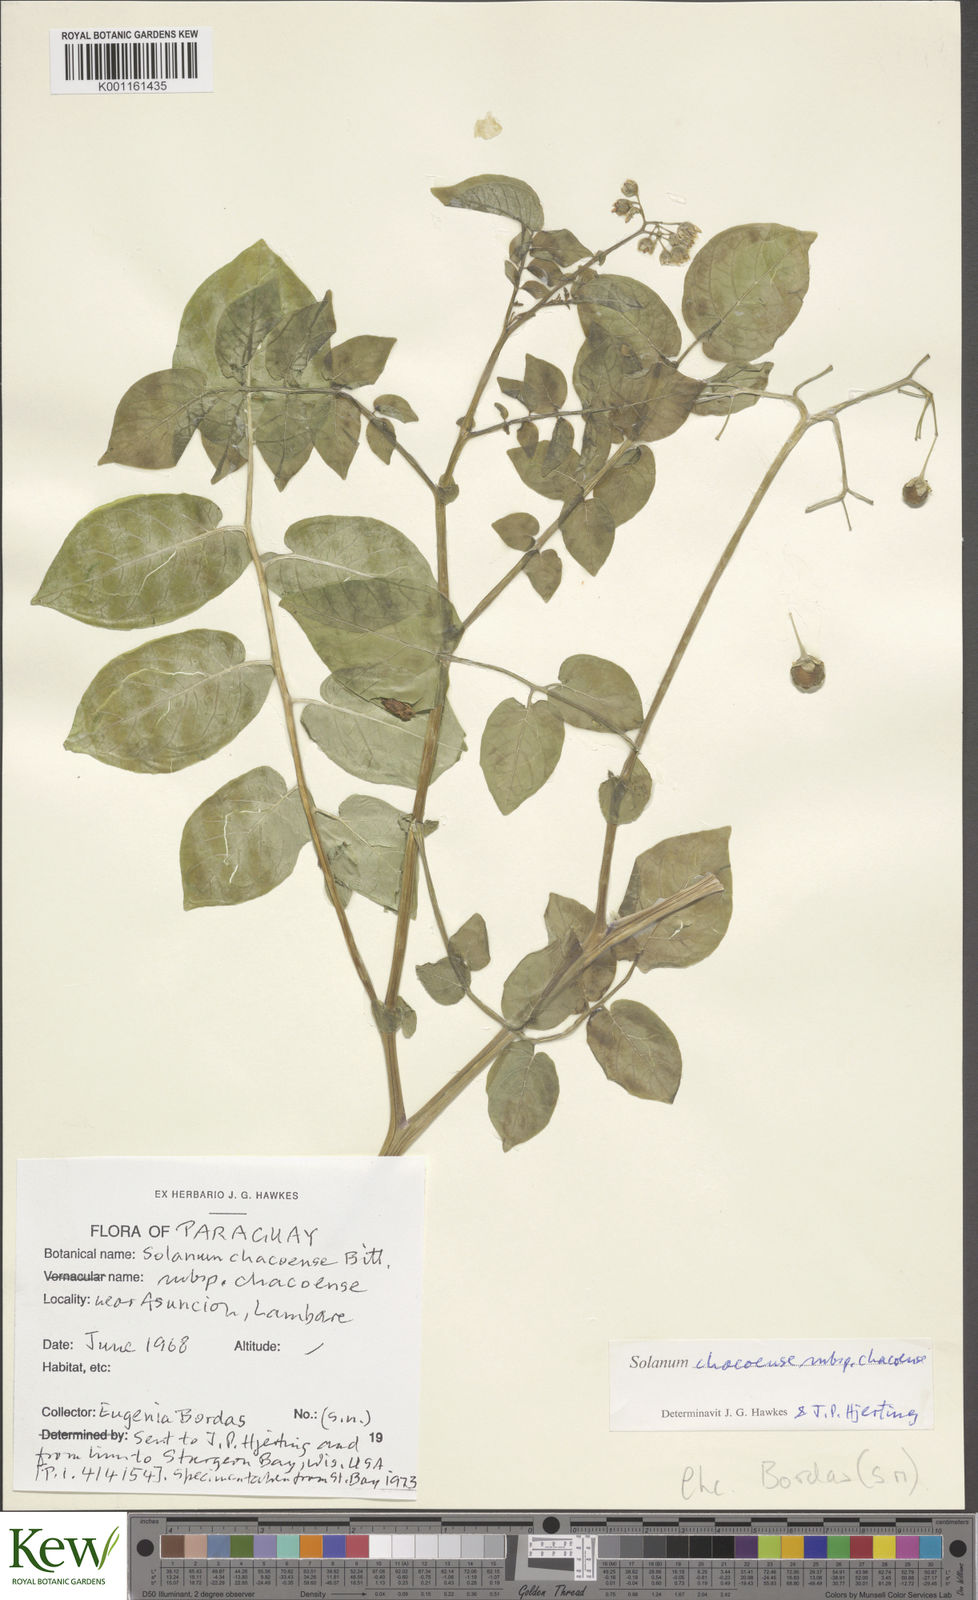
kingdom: Plantae
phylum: Tracheophyta
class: Magnoliopsida
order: Solanales
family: Solanaceae
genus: Solanum
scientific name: Solanum chacoense
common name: Chaco potato
